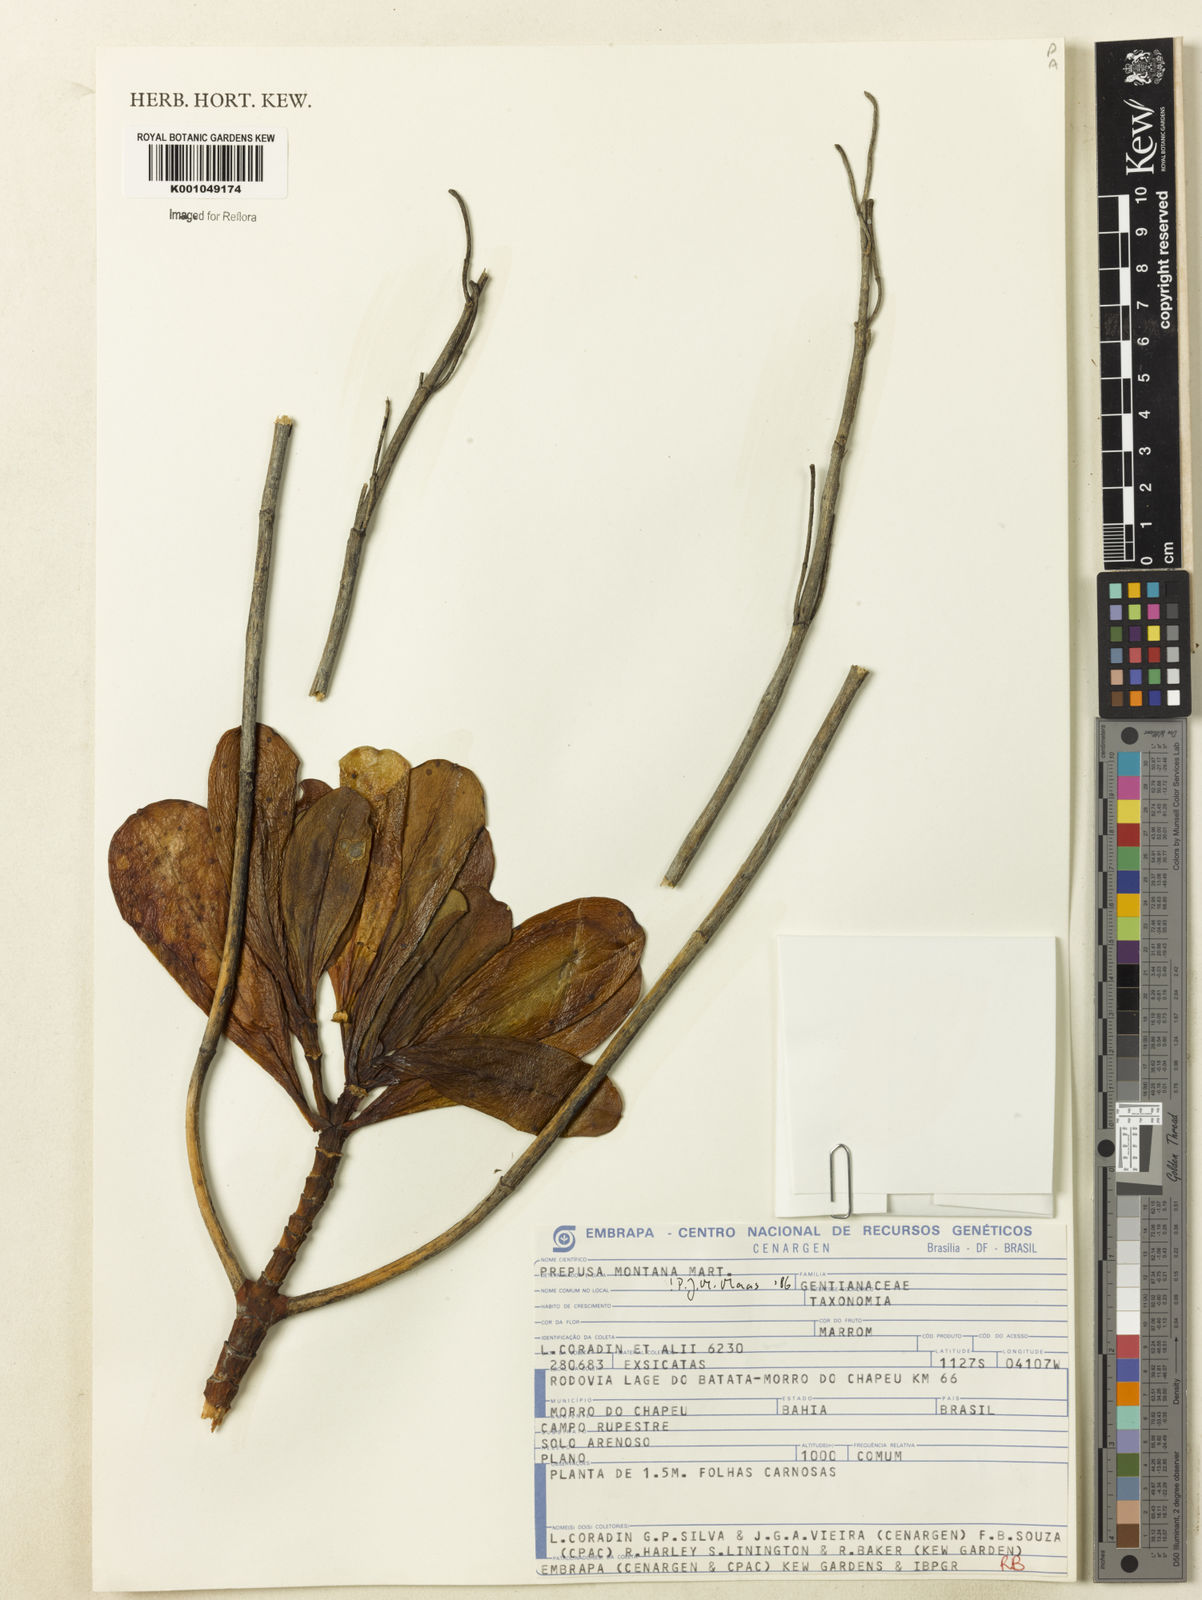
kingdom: Plantae
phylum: Tracheophyta
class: Magnoliopsida
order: Gentianales
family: Gentianaceae
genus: Prepusa
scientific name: Prepusa montana
